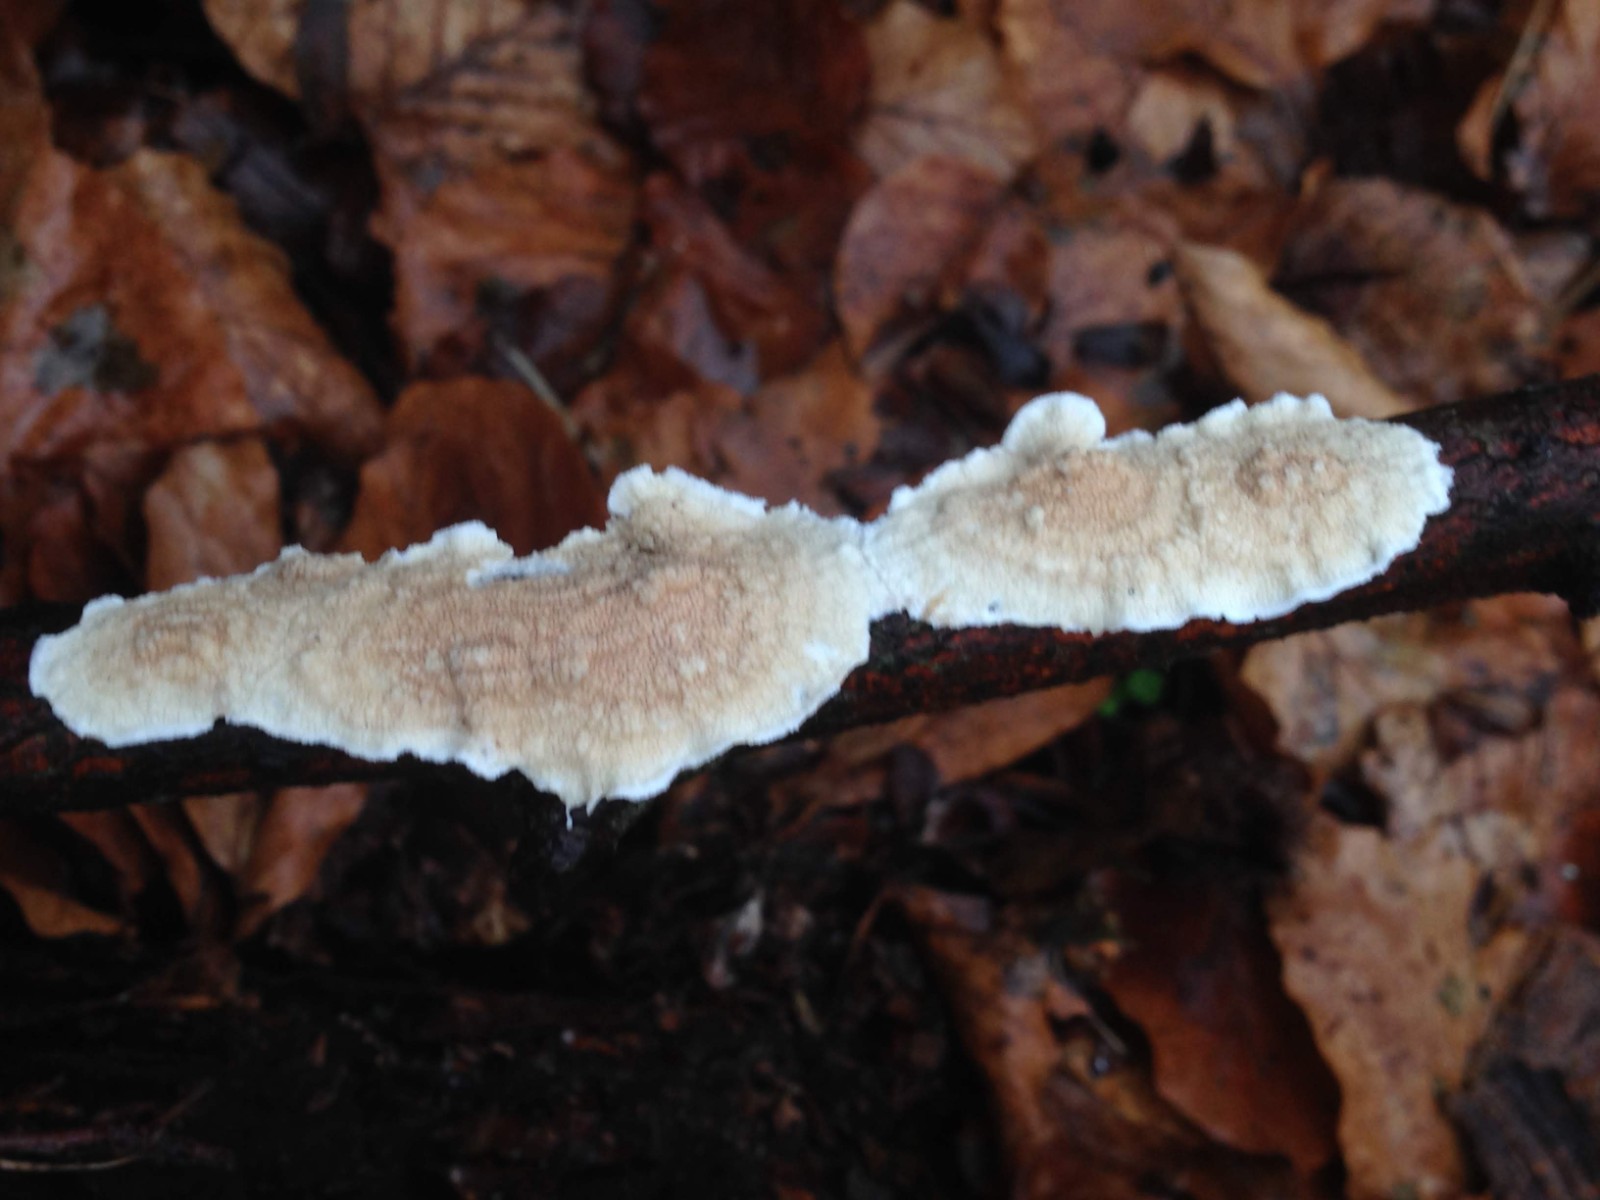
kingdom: Fungi
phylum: Basidiomycota
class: Agaricomycetes
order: Polyporales
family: Irpicaceae
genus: Byssomerulius
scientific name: Byssomerulius corium
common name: læder-åresvamp
